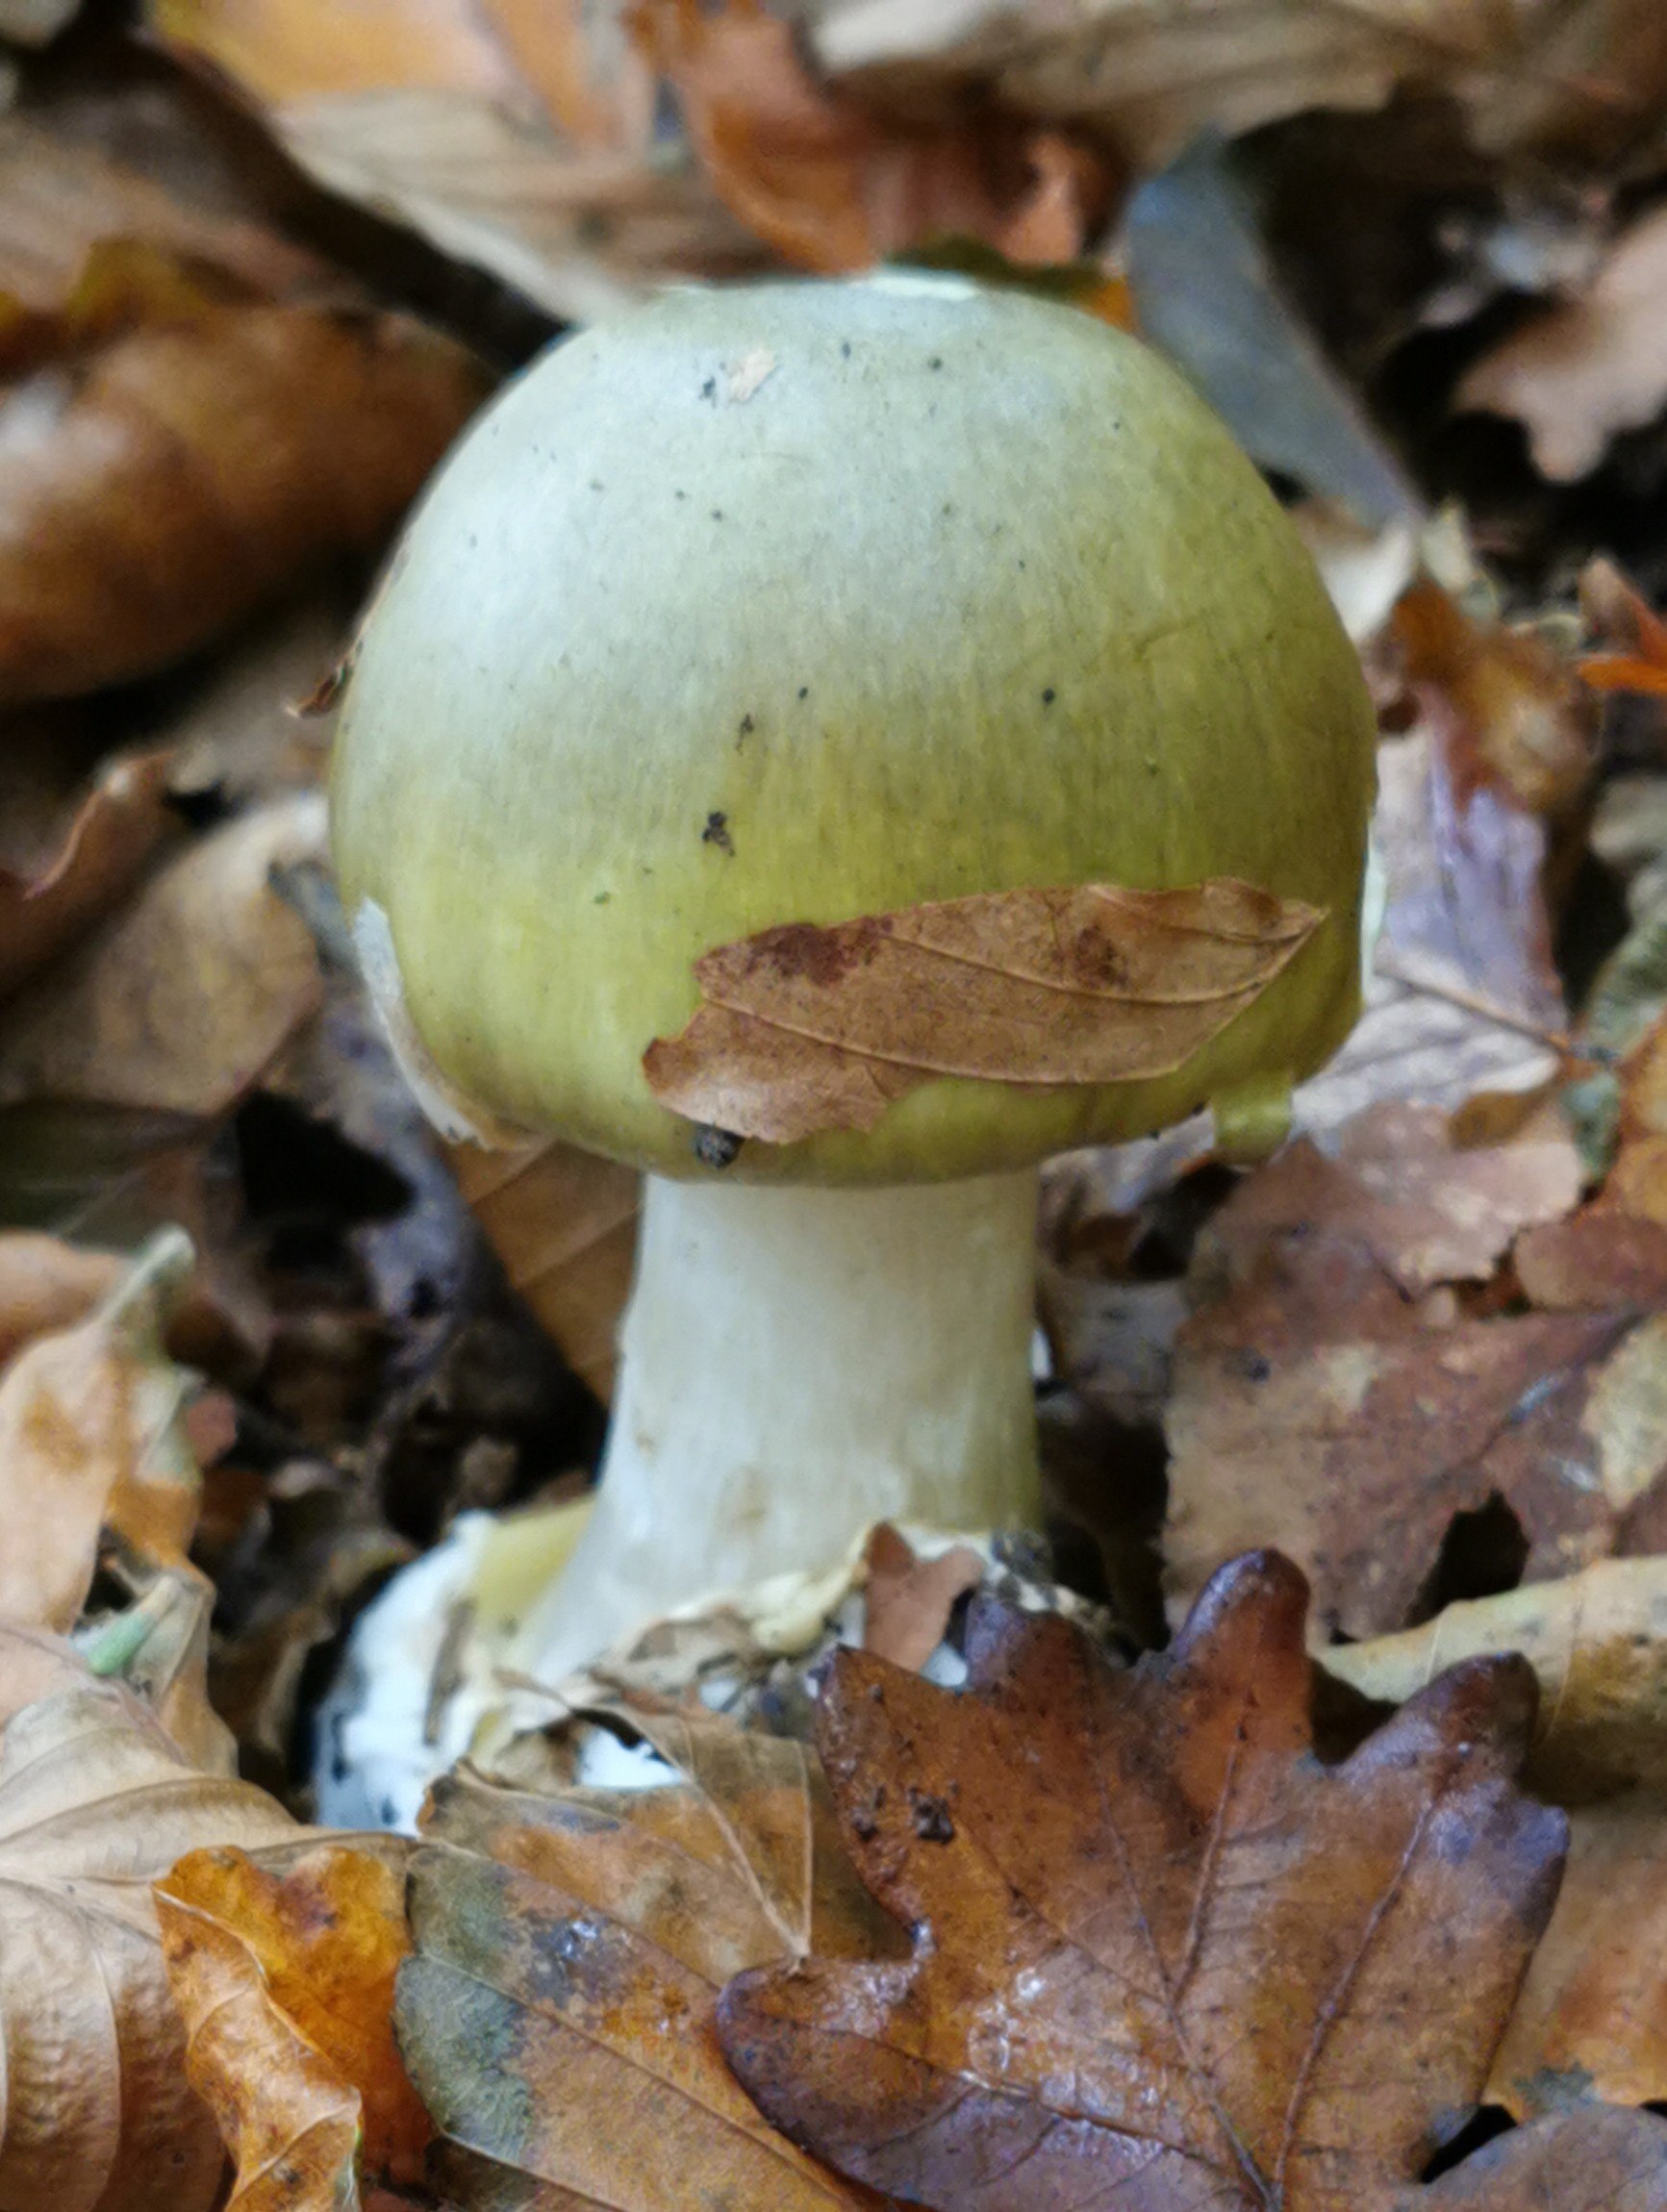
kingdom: Fungi
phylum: Basidiomycota
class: Agaricomycetes
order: Agaricales
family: Amanitaceae
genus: Amanita
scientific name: Amanita phalloides
